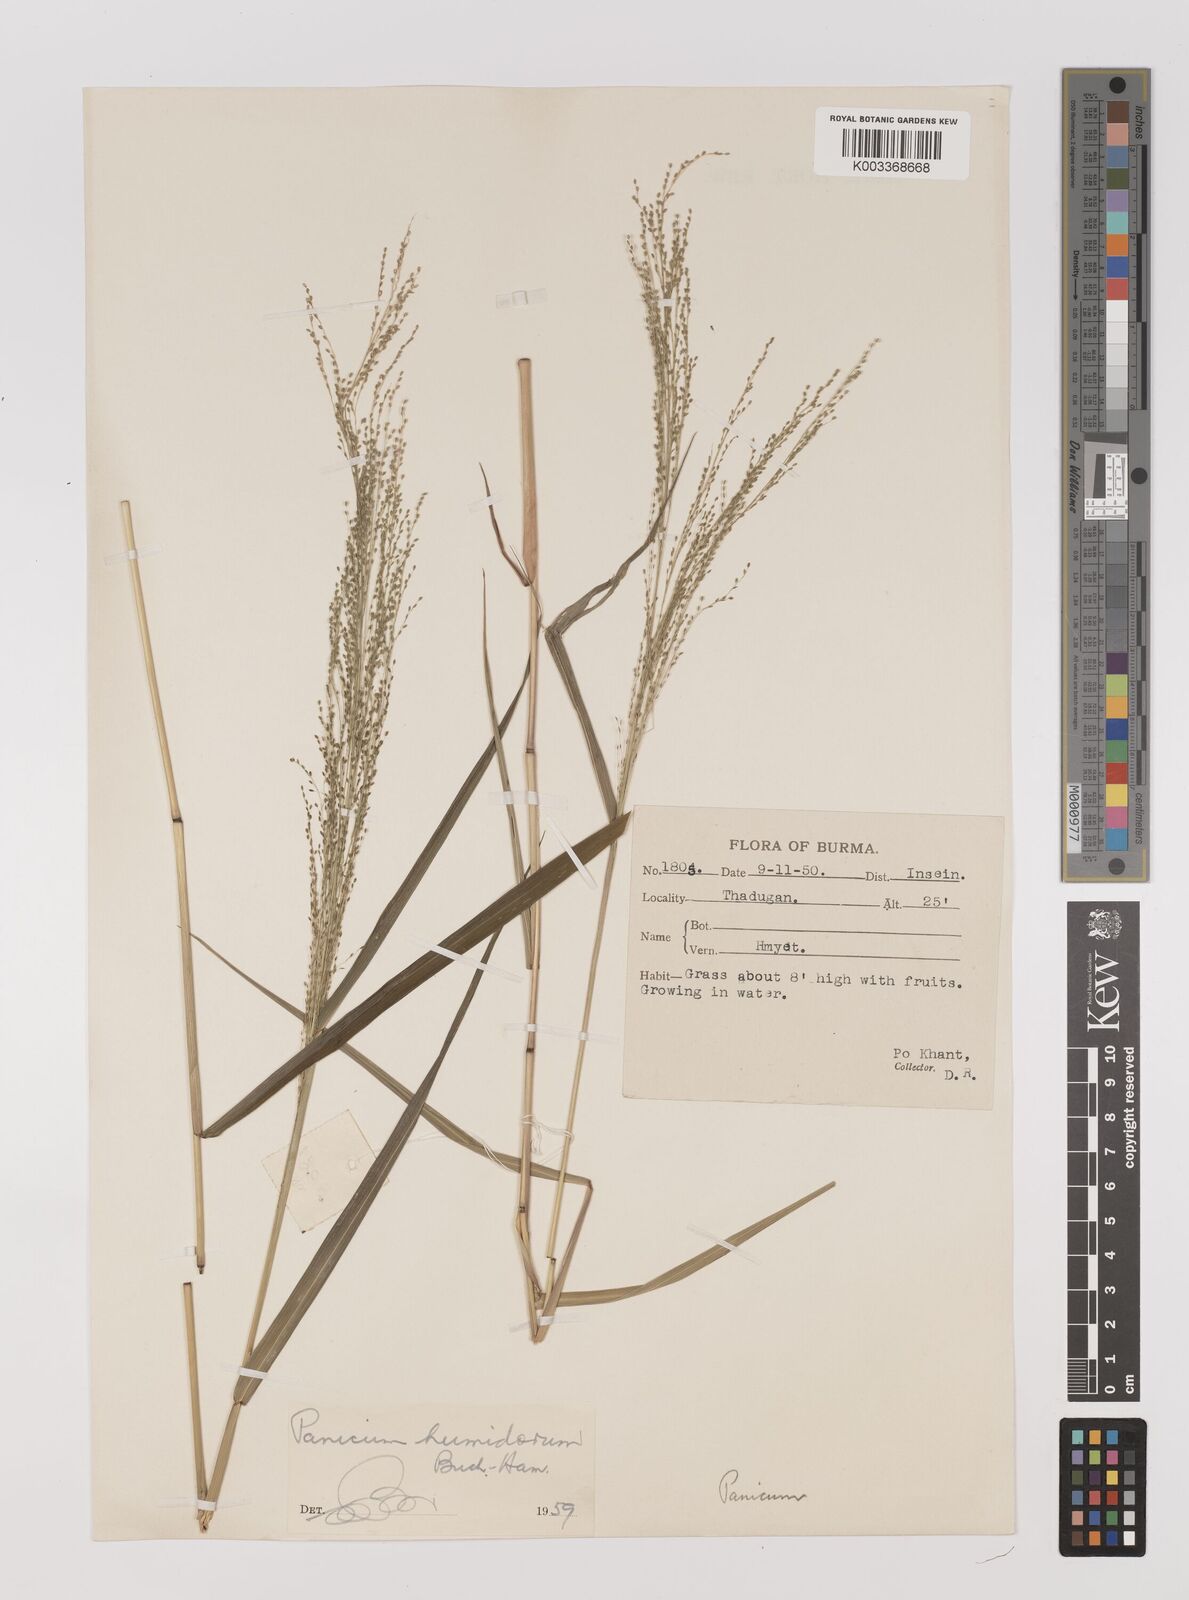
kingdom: Plantae
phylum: Tracheophyta
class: Liliopsida
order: Poales
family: Poaceae
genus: Panicum
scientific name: Panicum humidorum
